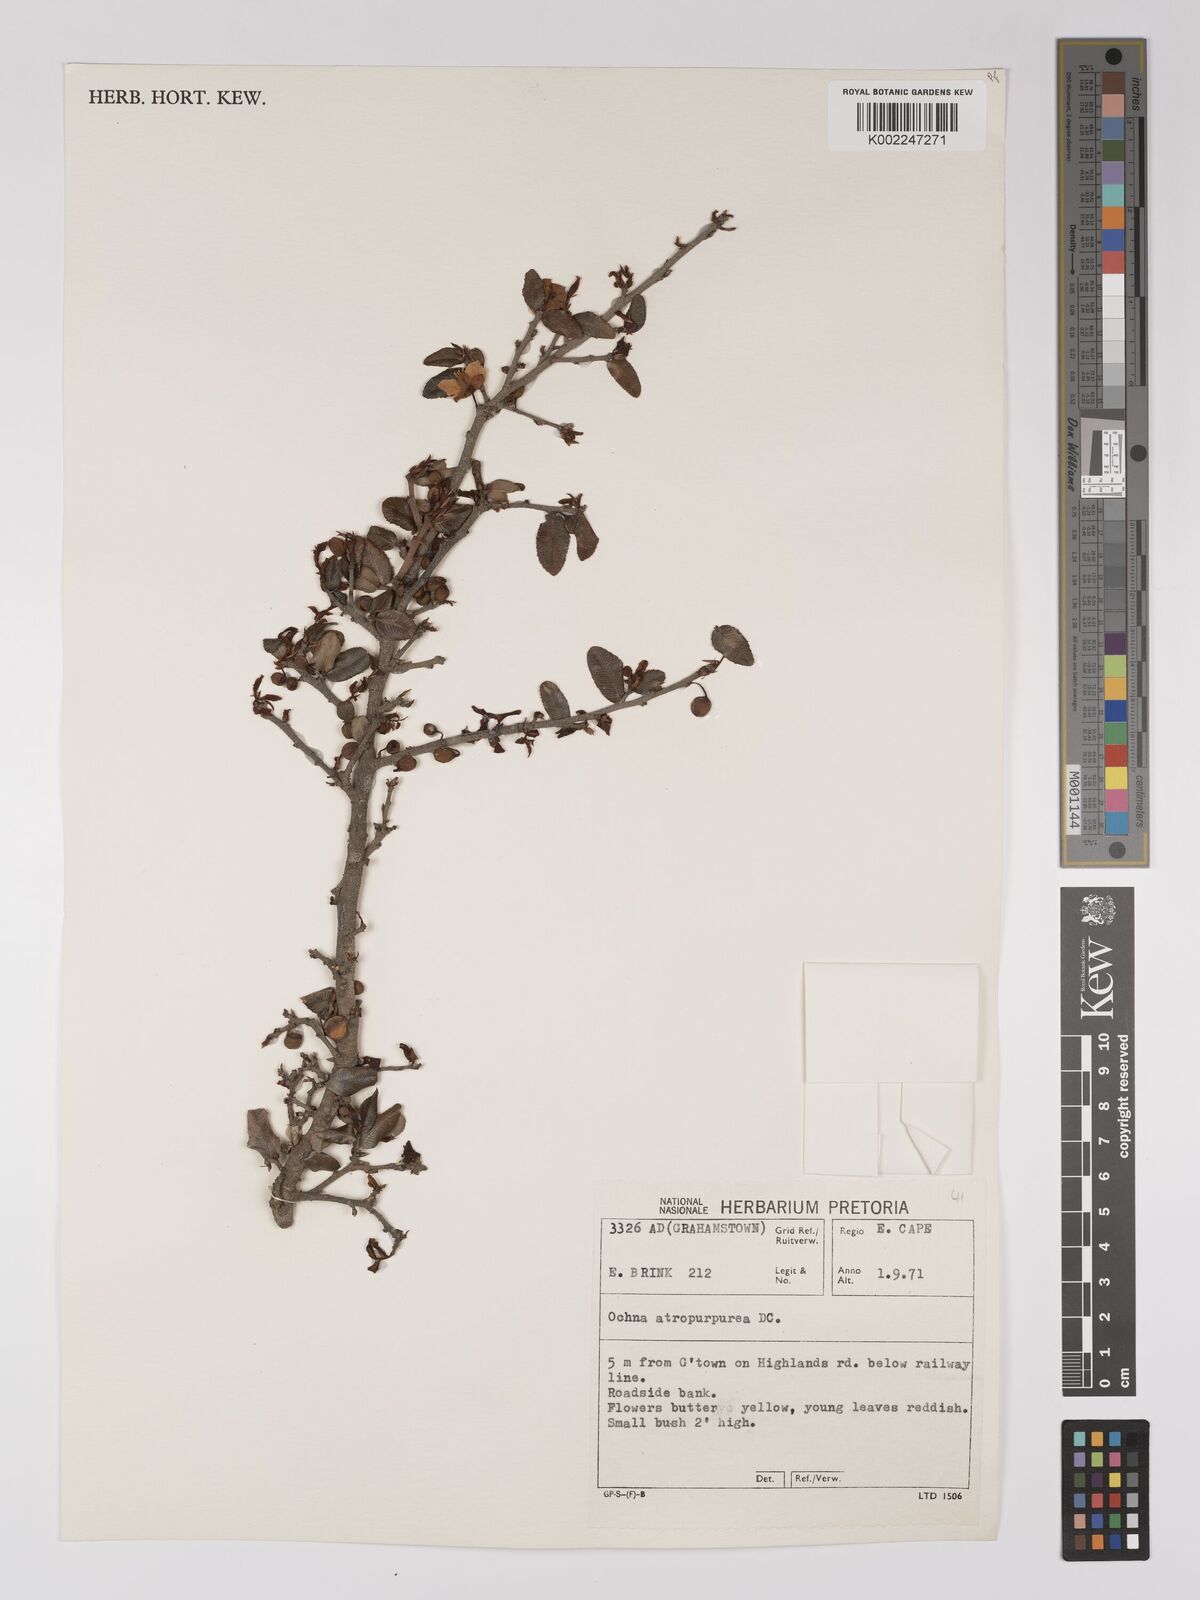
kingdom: Plantae
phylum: Tracheophyta
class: Magnoliopsida
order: Malpighiales
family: Ochnaceae
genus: Ochna
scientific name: Ochna gamostigmata
